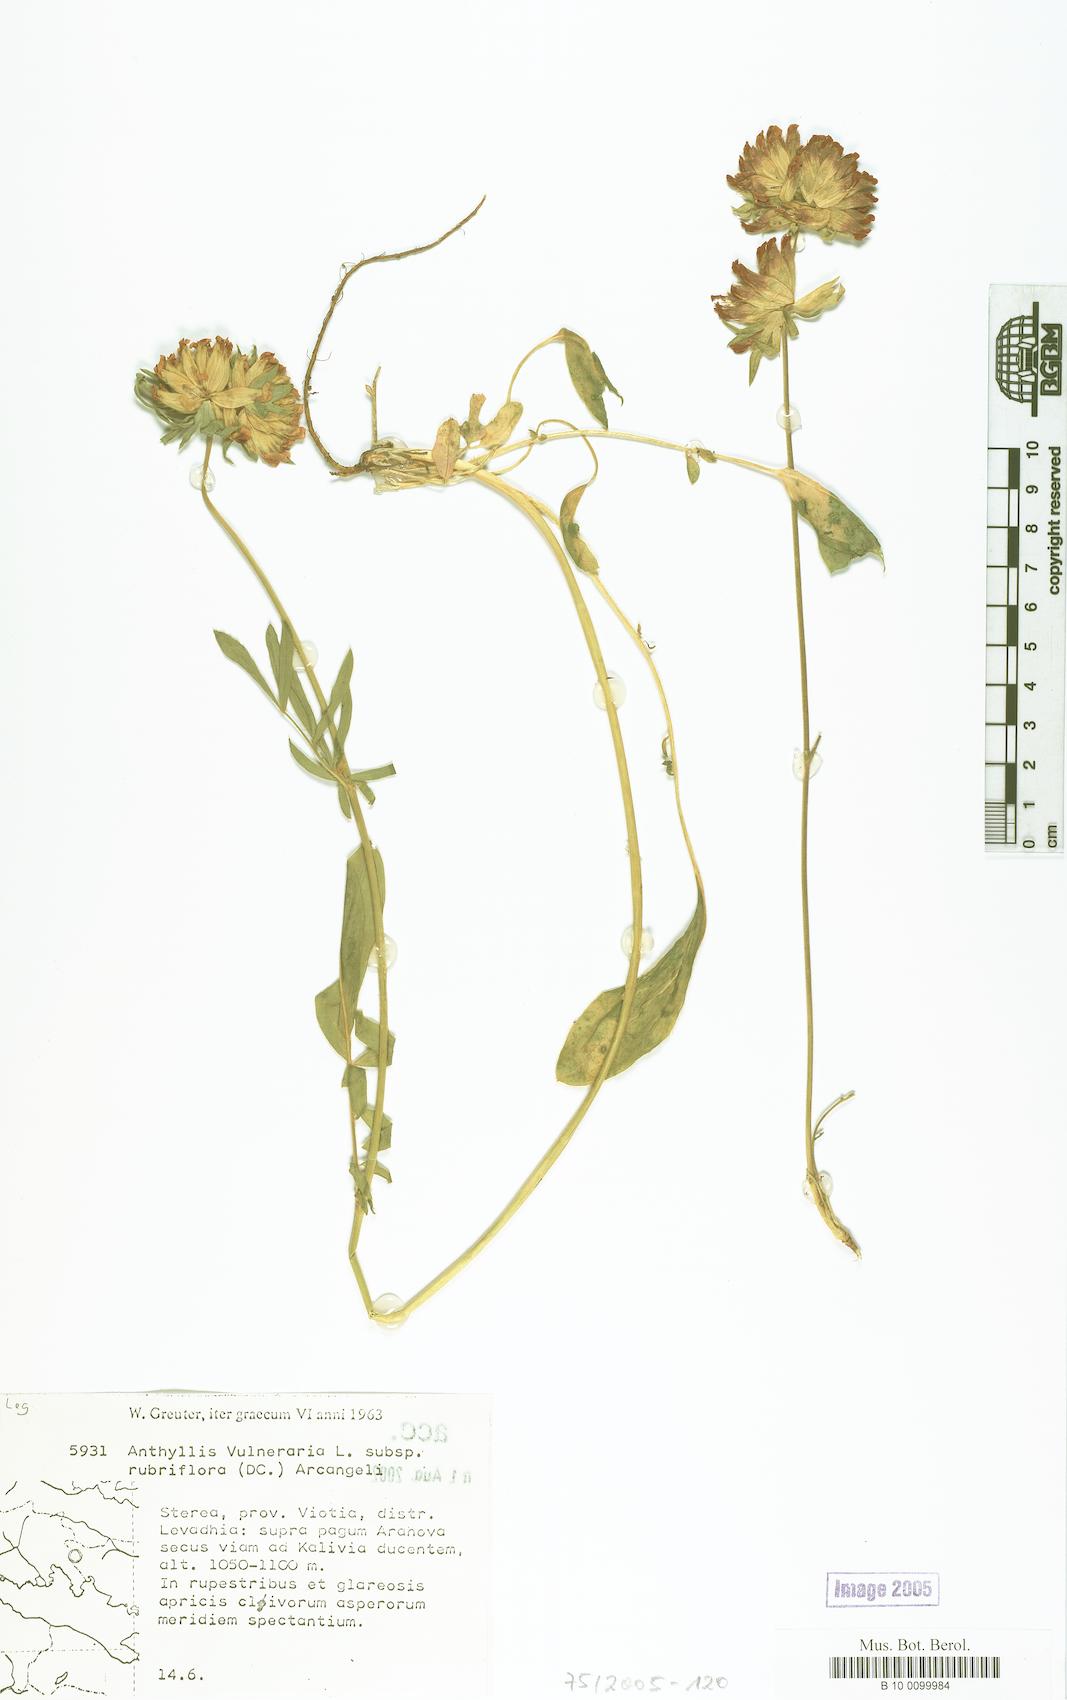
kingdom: Plantae
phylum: Tracheophyta
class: Magnoliopsida
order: Fabales
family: Fabaceae
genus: Anthyllis
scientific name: Anthyllis vulneraria
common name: Kidney vetch
